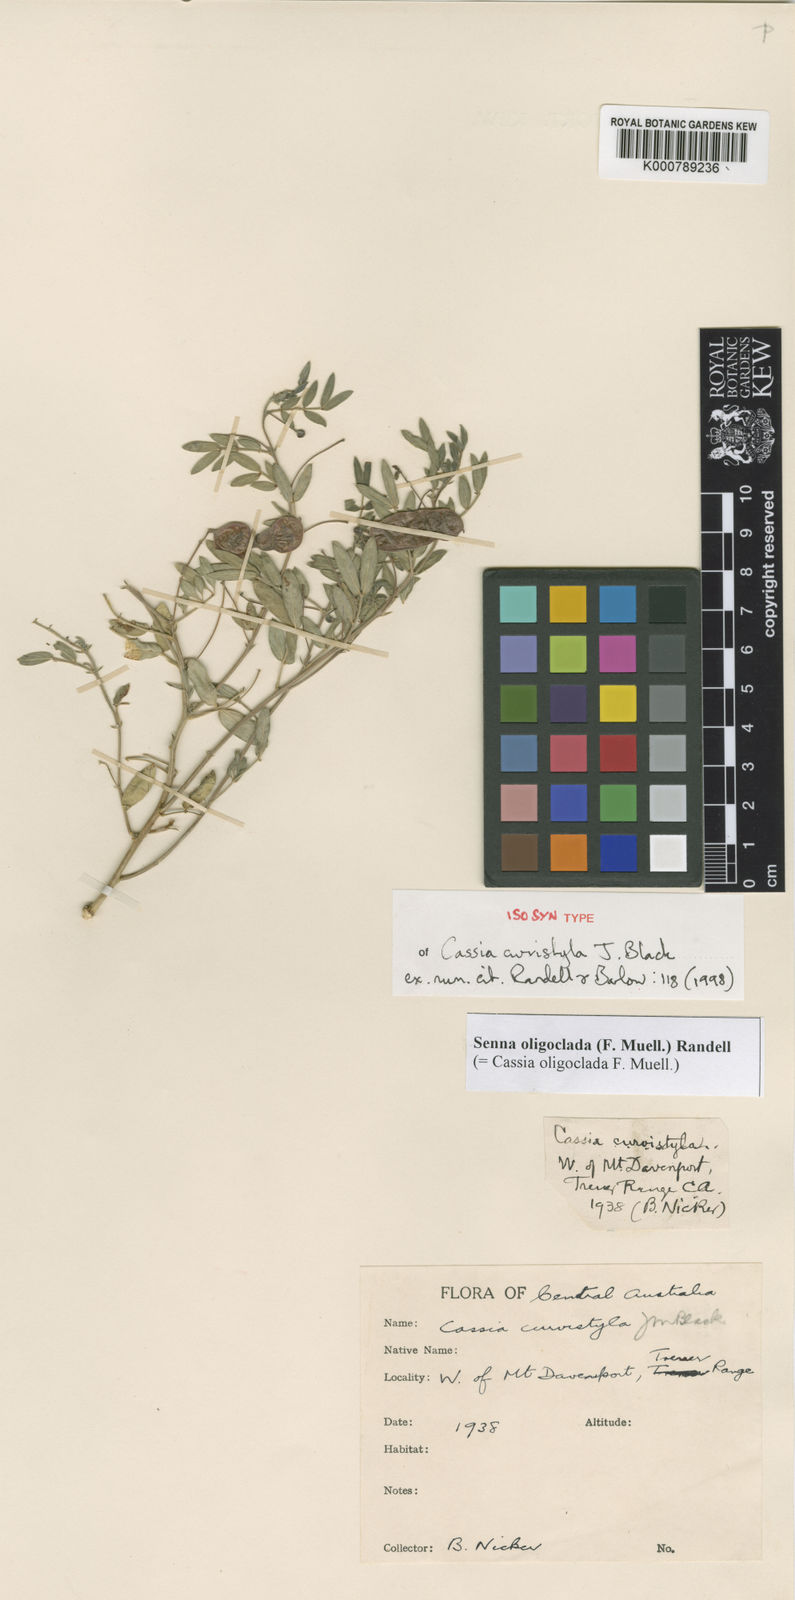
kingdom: Plantae
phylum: Tracheophyta
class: Magnoliopsida
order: Fabales
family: Fabaceae
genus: Senna
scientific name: Senna oligoclada
